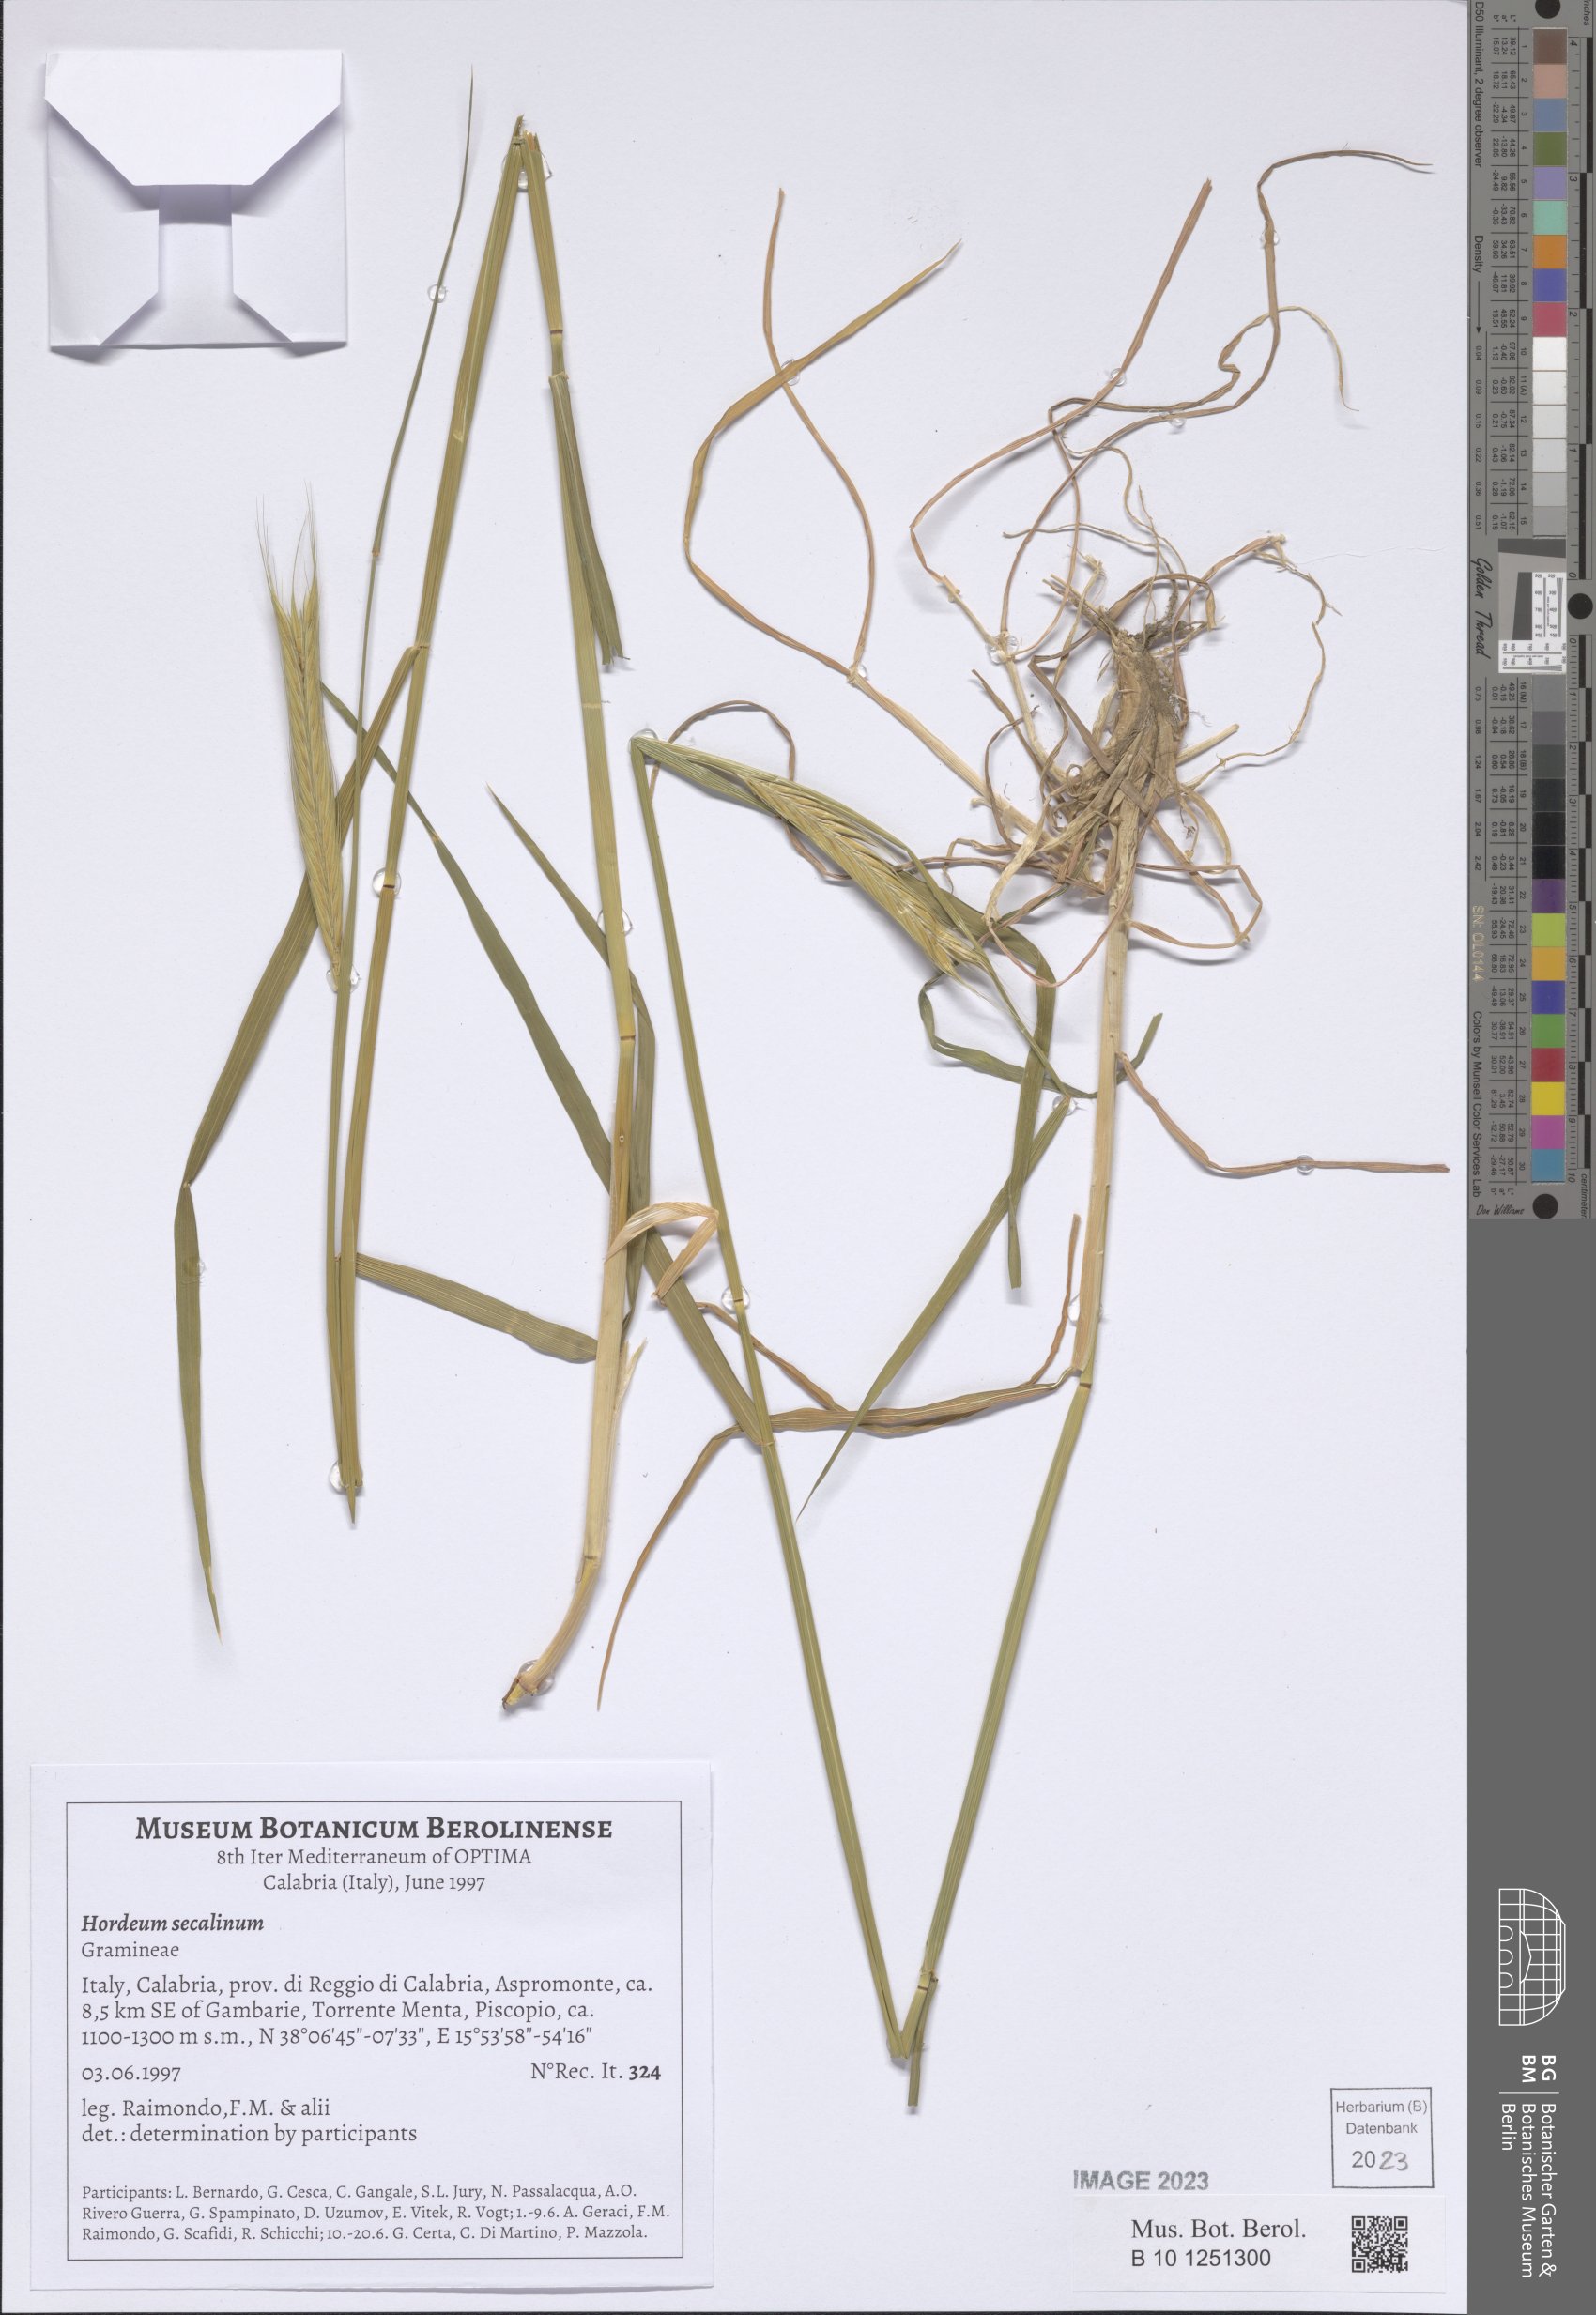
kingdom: Plantae
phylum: Tracheophyta
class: Liliopsida
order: Poales
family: Poaceae
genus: Hordeum
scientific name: Hordeum secalinum
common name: Meadow barley
